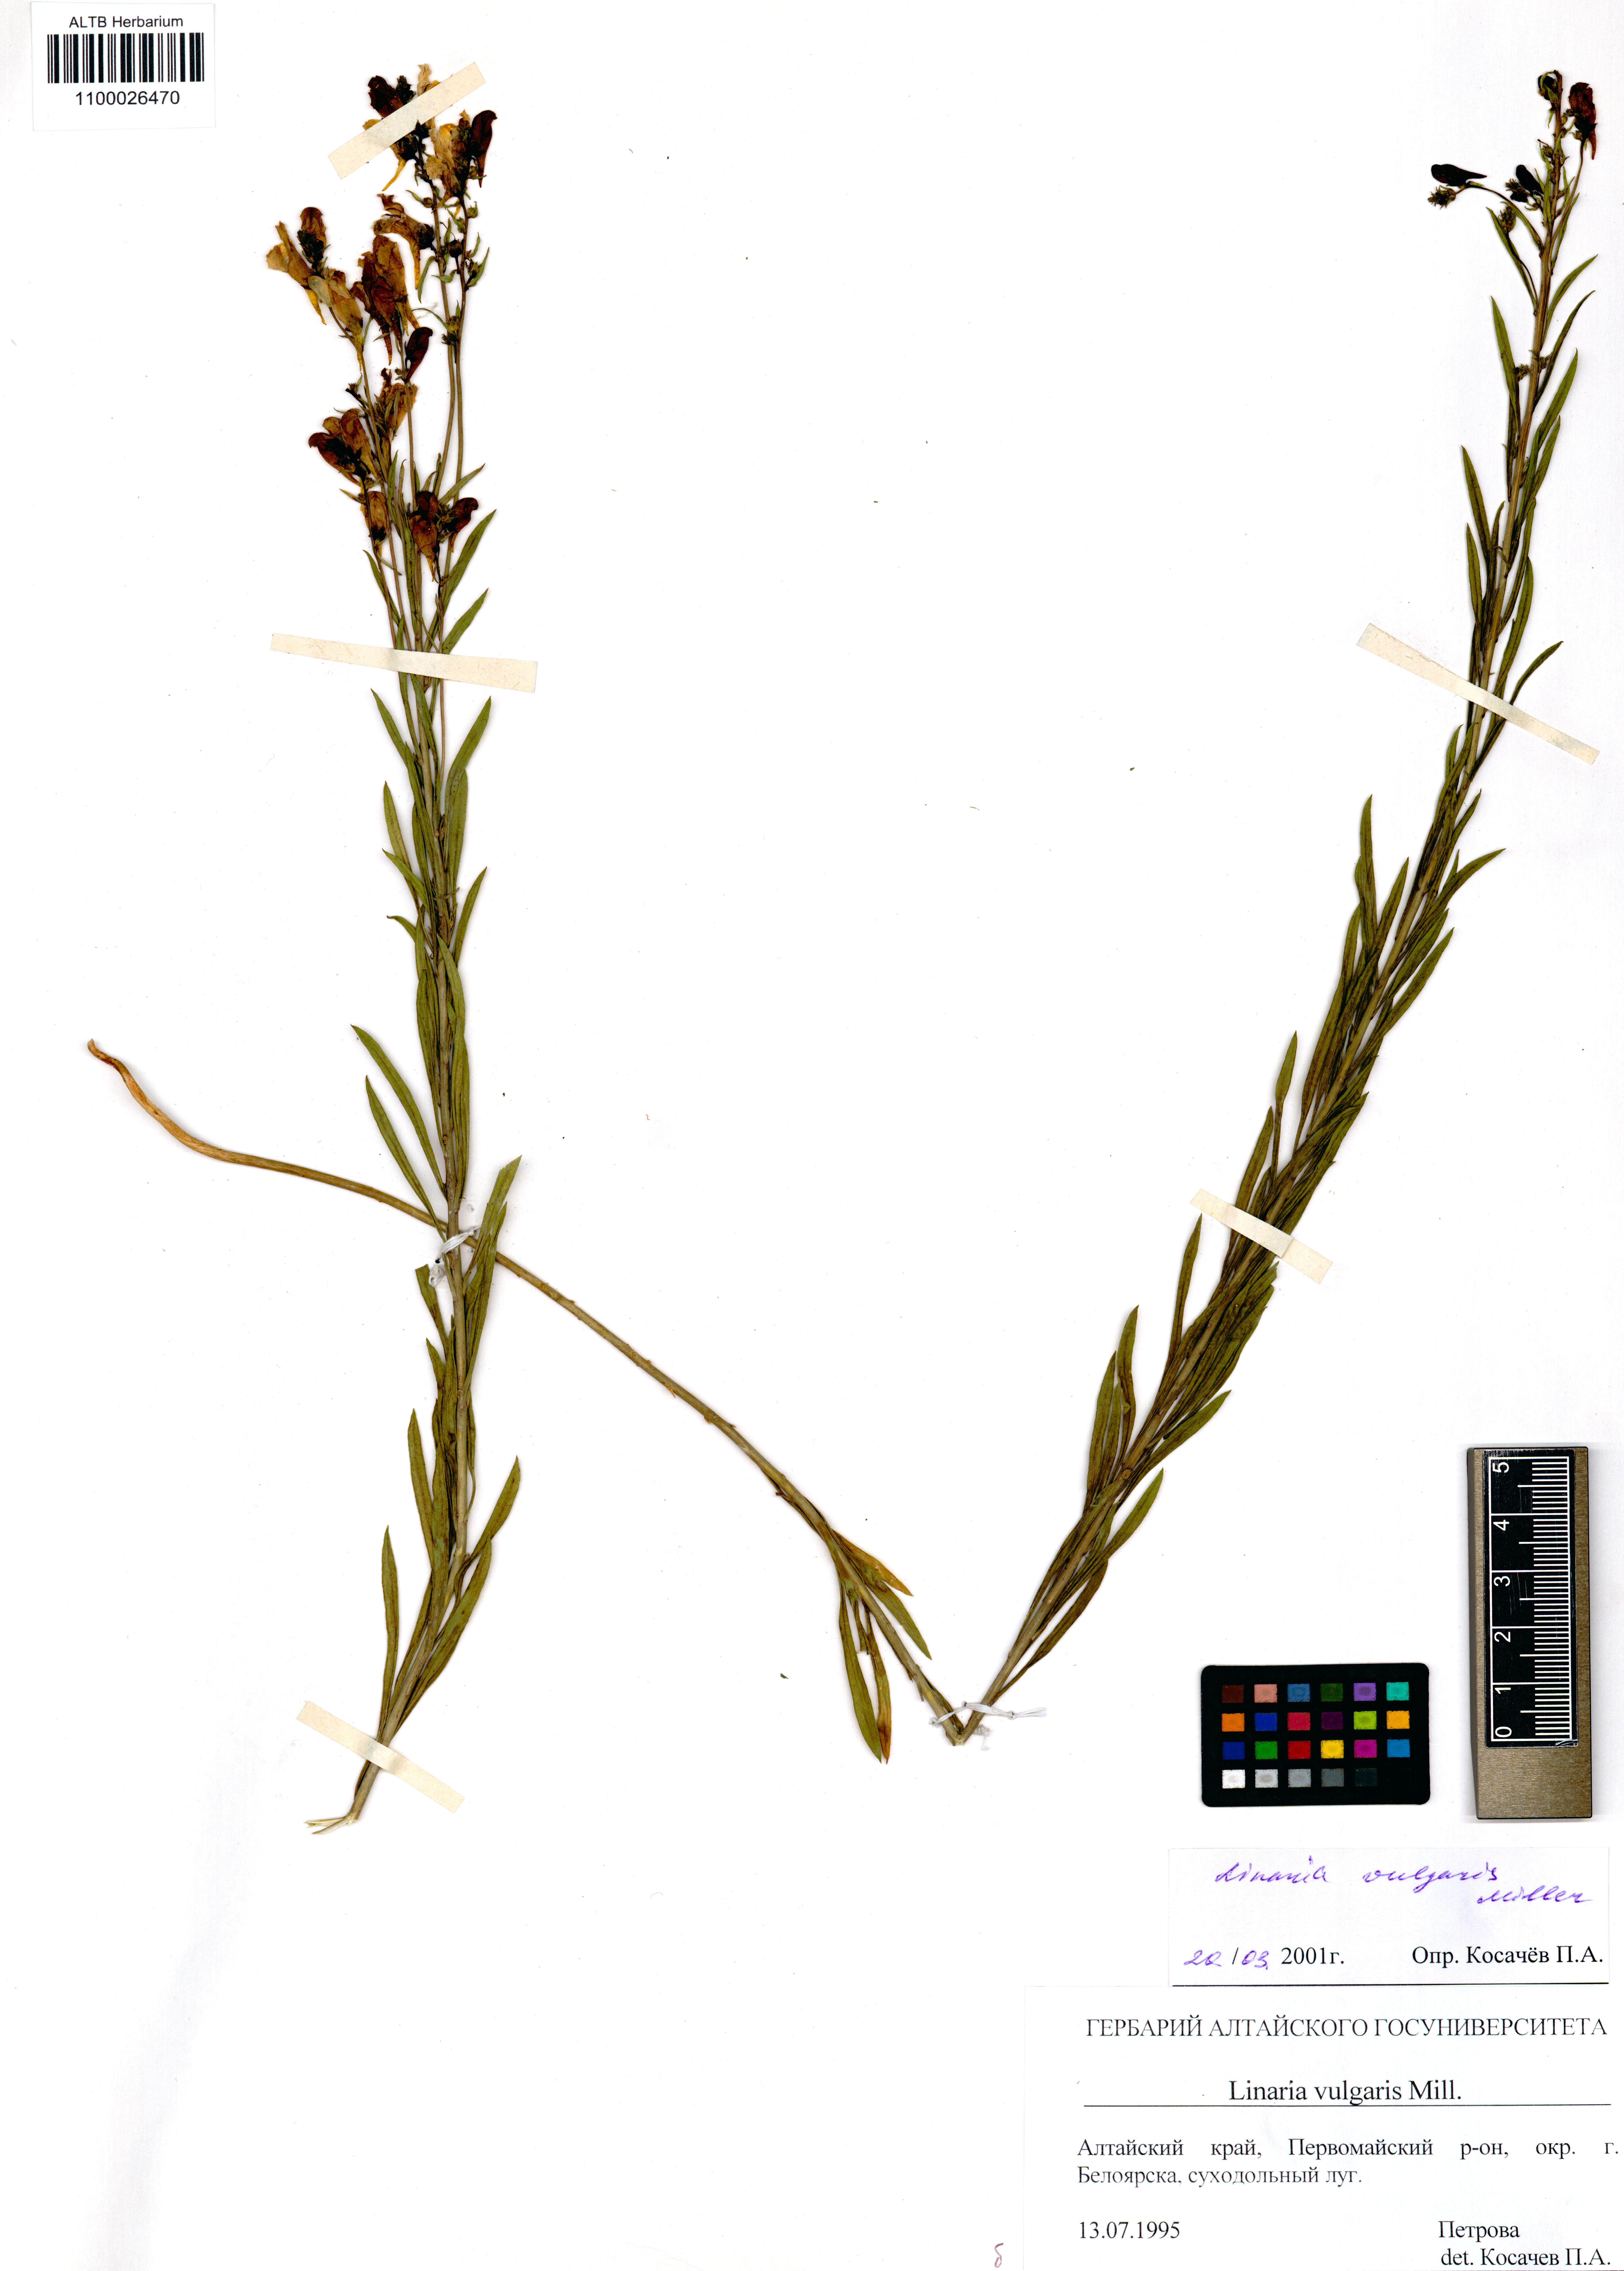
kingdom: Plantae
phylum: Tracheophyta
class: Magnoliopsida
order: Lamiales
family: Plantaginaceae
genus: Linaria
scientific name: Linaria vulgaris
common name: Butter and eggs
